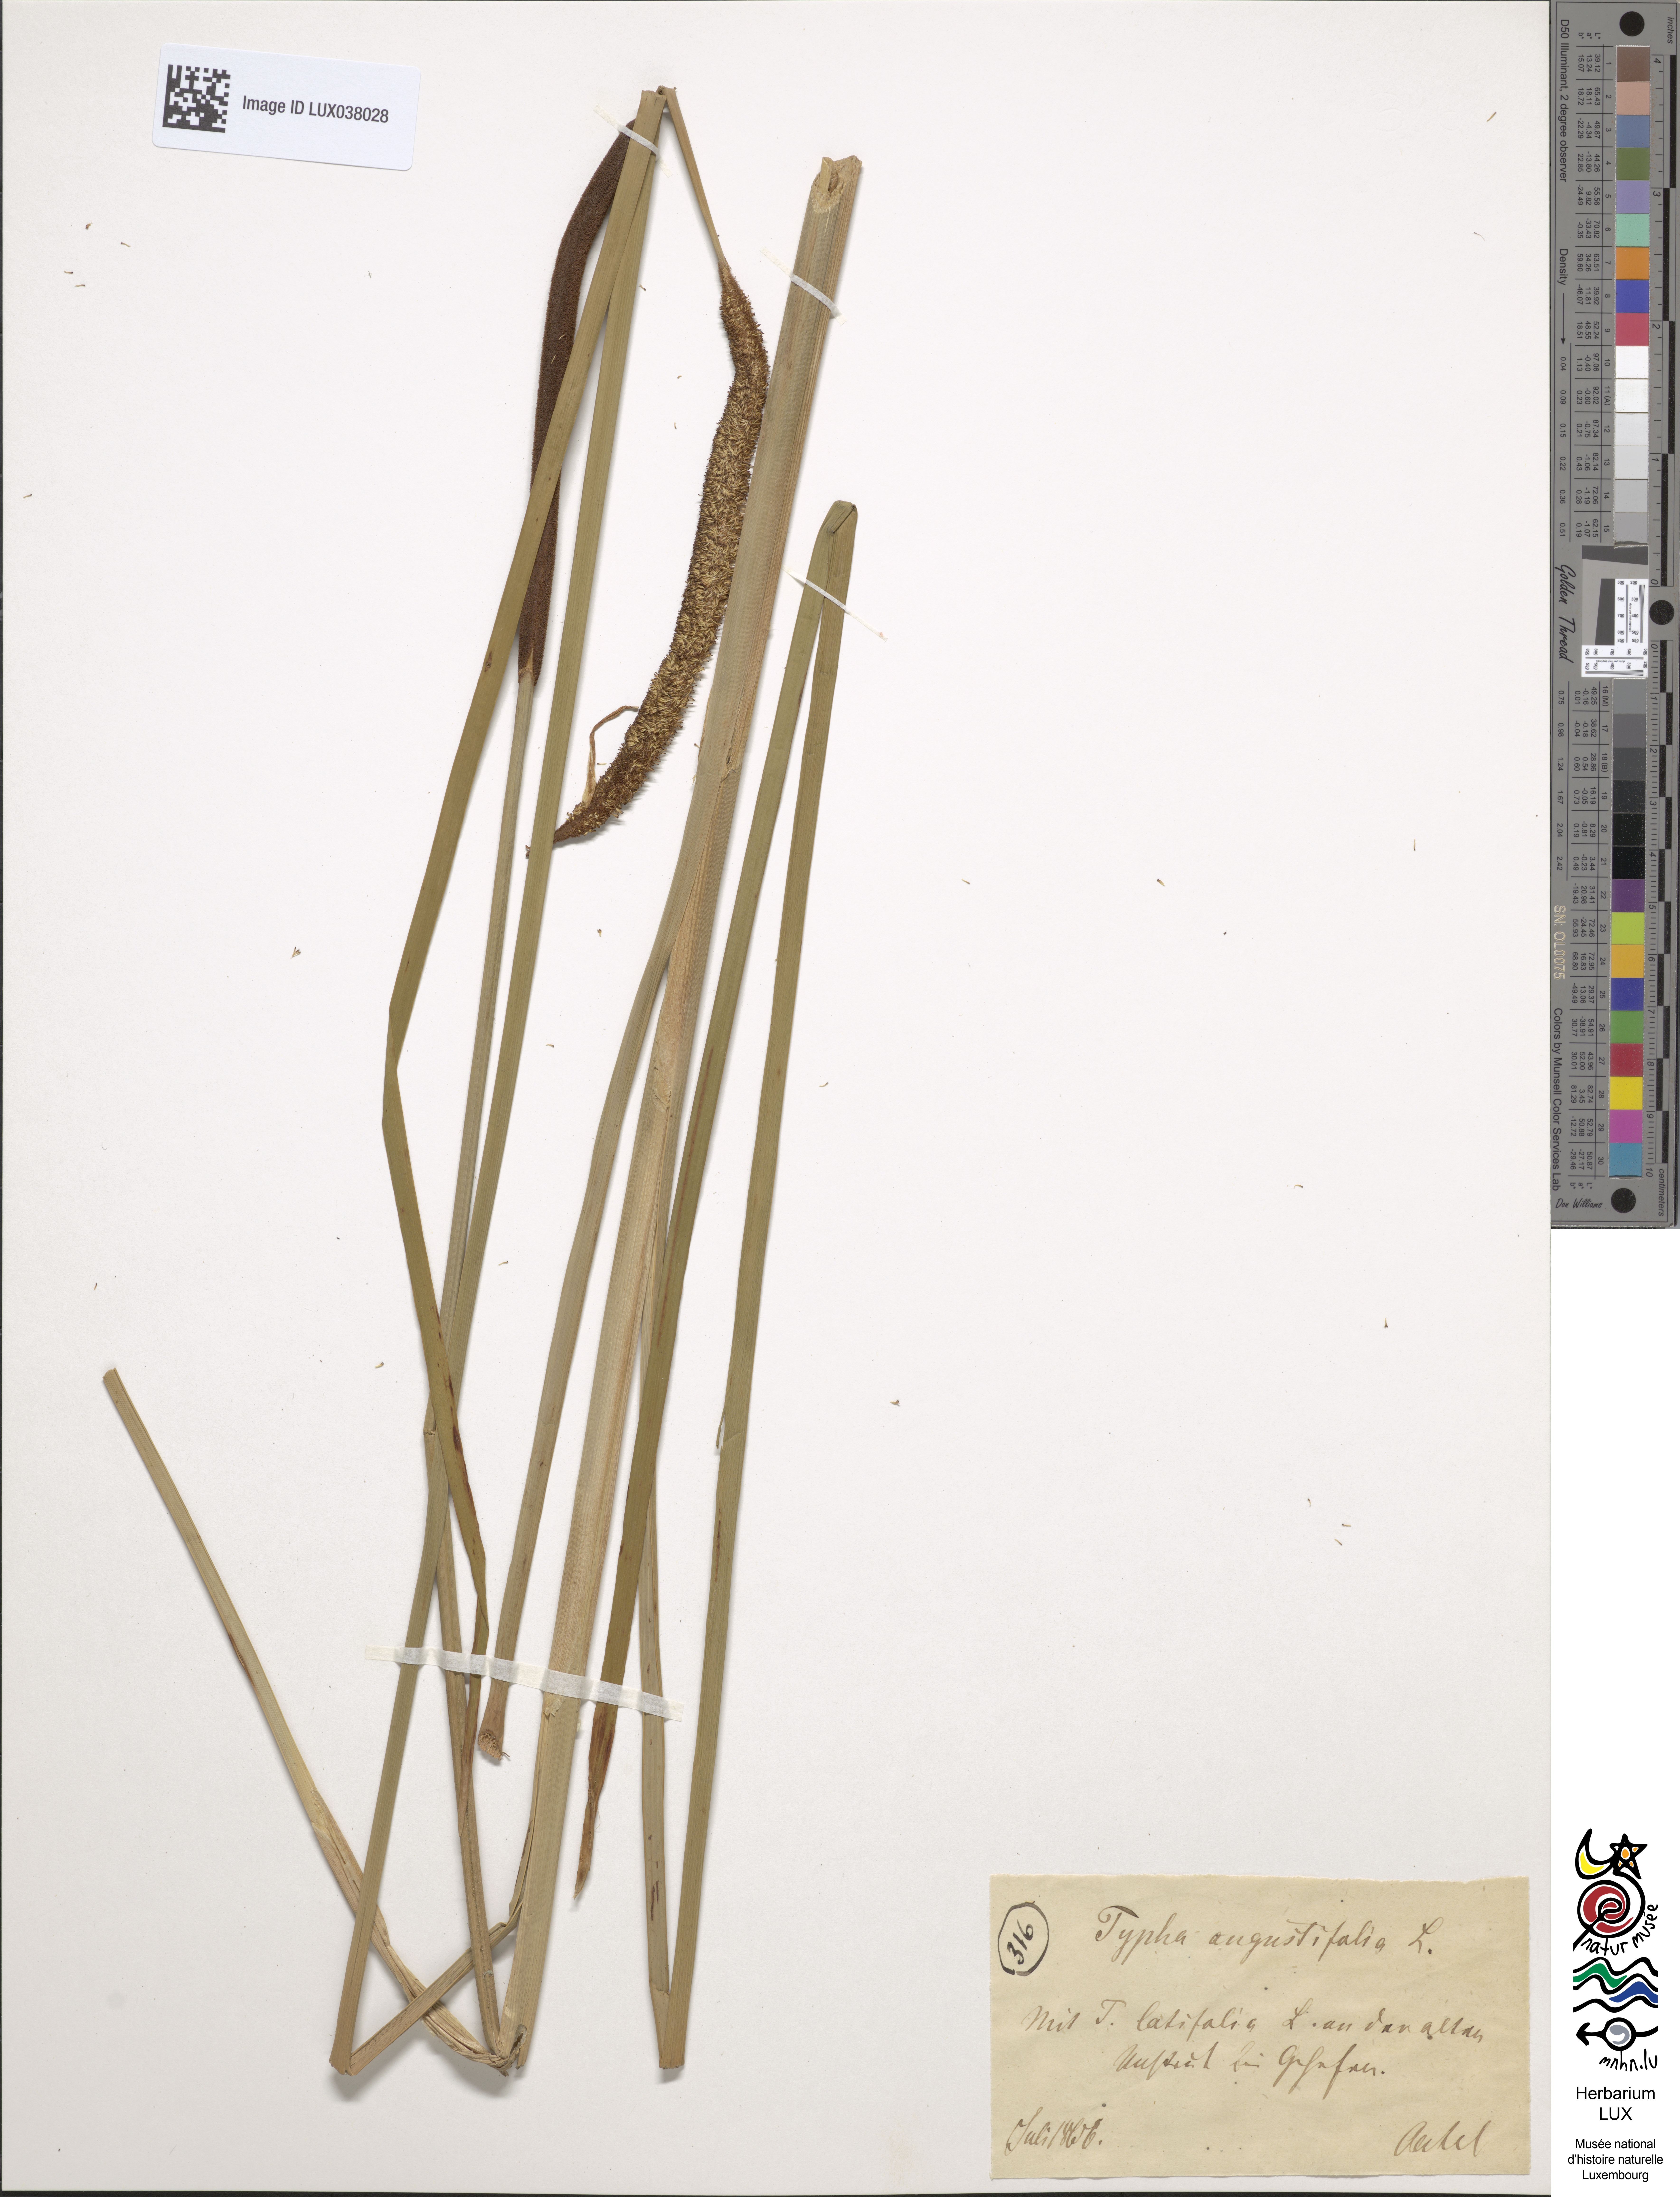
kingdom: Plantae
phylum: Tracheophyta
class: Liliopsida
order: Poales
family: Typhaceae
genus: Typha
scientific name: Typha angustifolia
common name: Lesser bulrush
